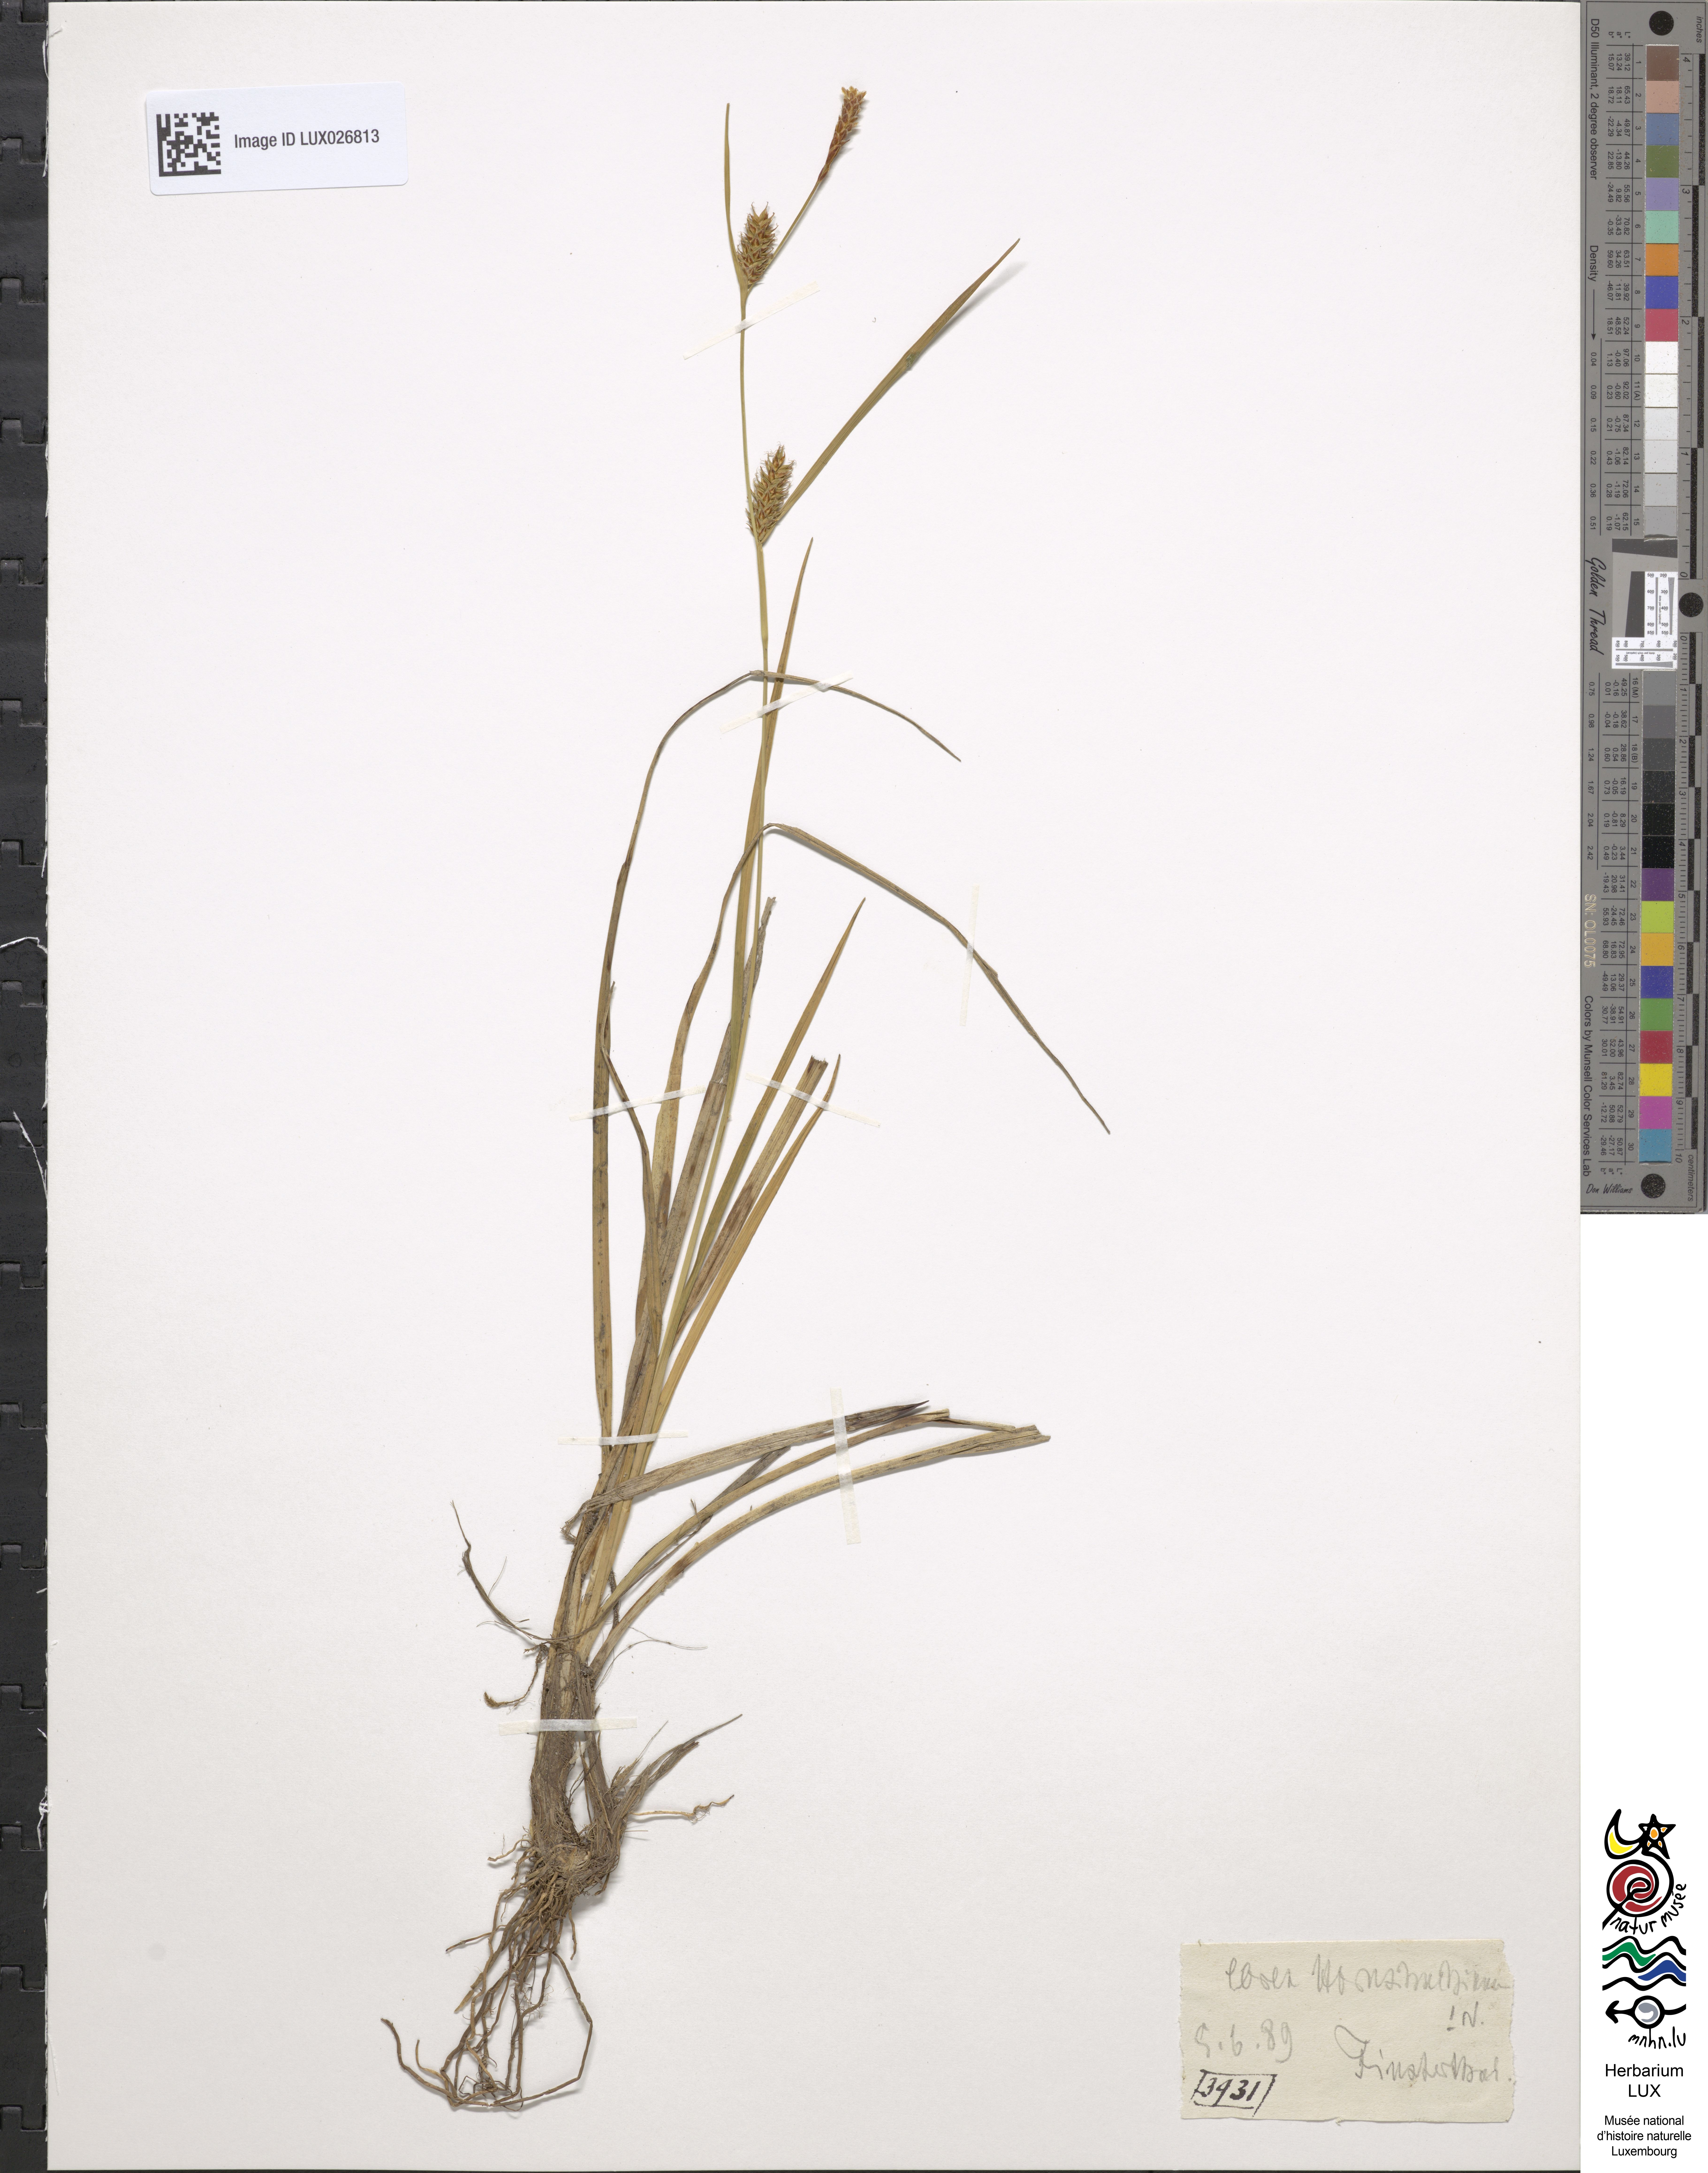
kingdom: Plantae
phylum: Tracheophyta
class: Liliopsida
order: Poales
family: Cyperaceae
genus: Carex
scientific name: Carex hostiana
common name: Tawny sedge
